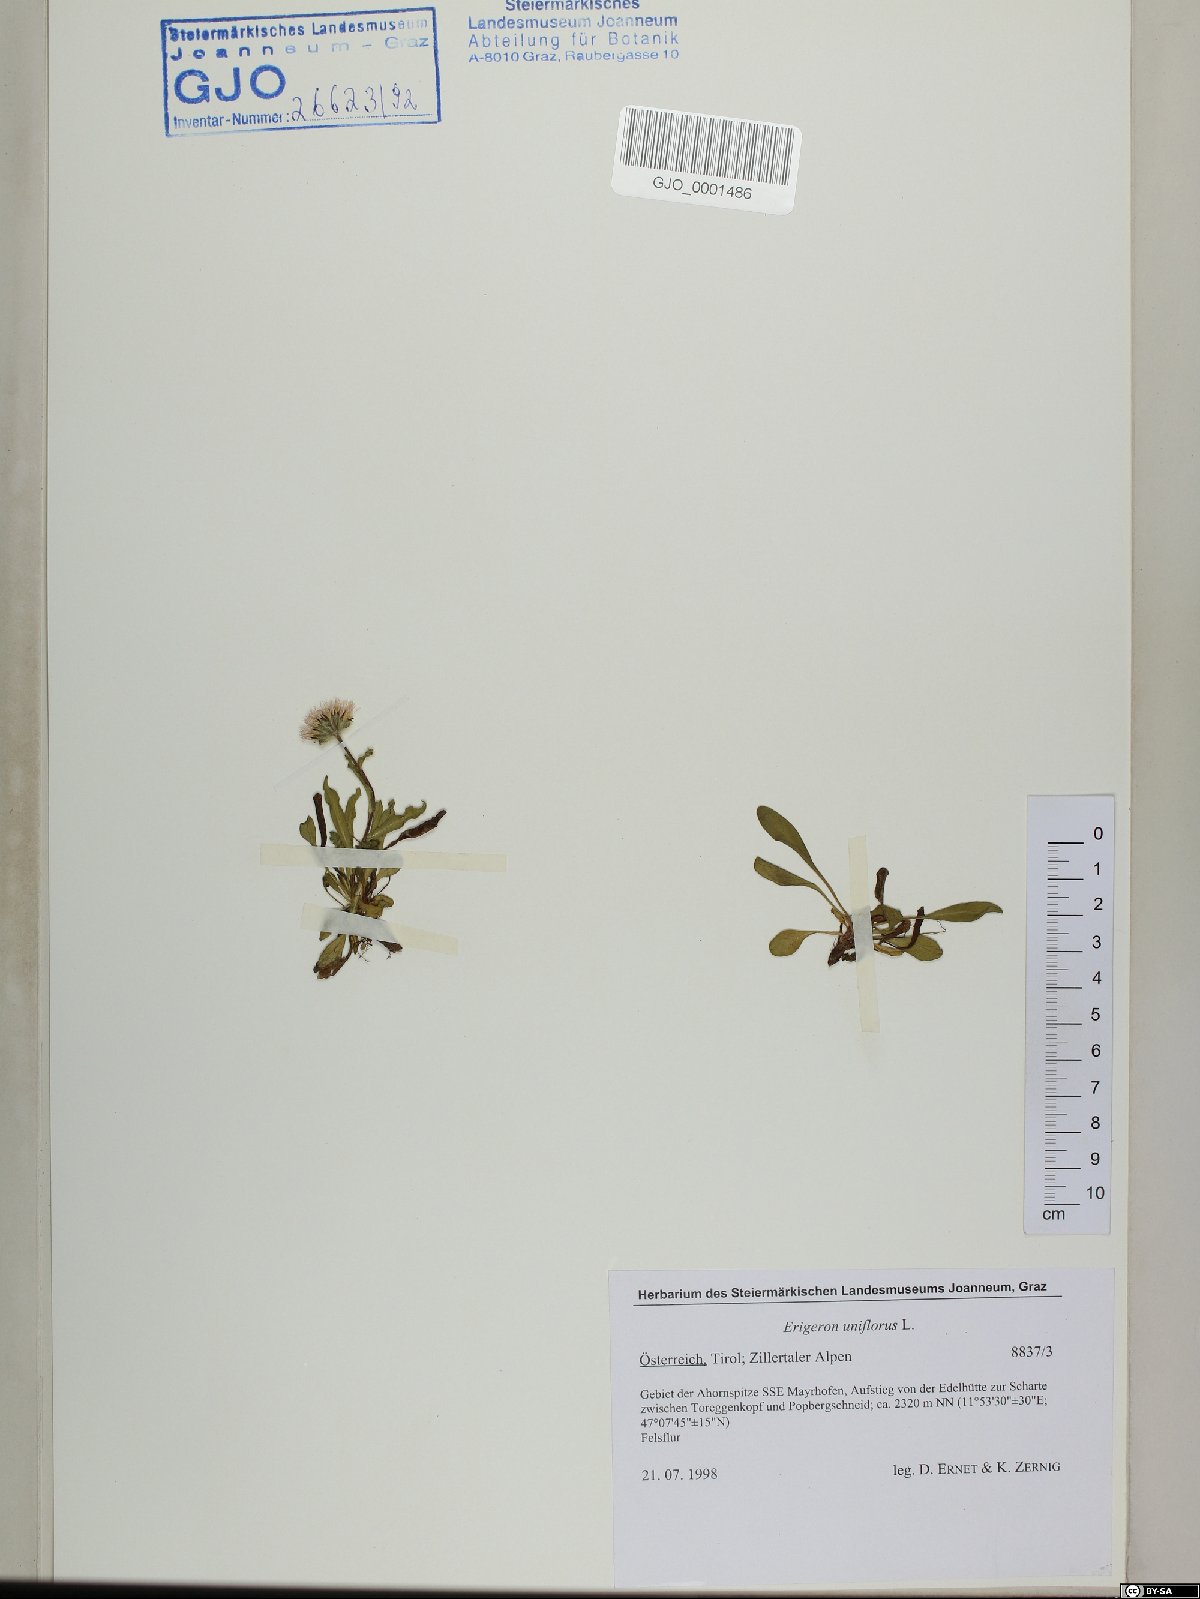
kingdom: Plantae
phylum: Tracheophyta
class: Magnoliopsida
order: Asterales
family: Asteraceae
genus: Erigeron
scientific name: Erigeron uniflorus
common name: Northern daisy
